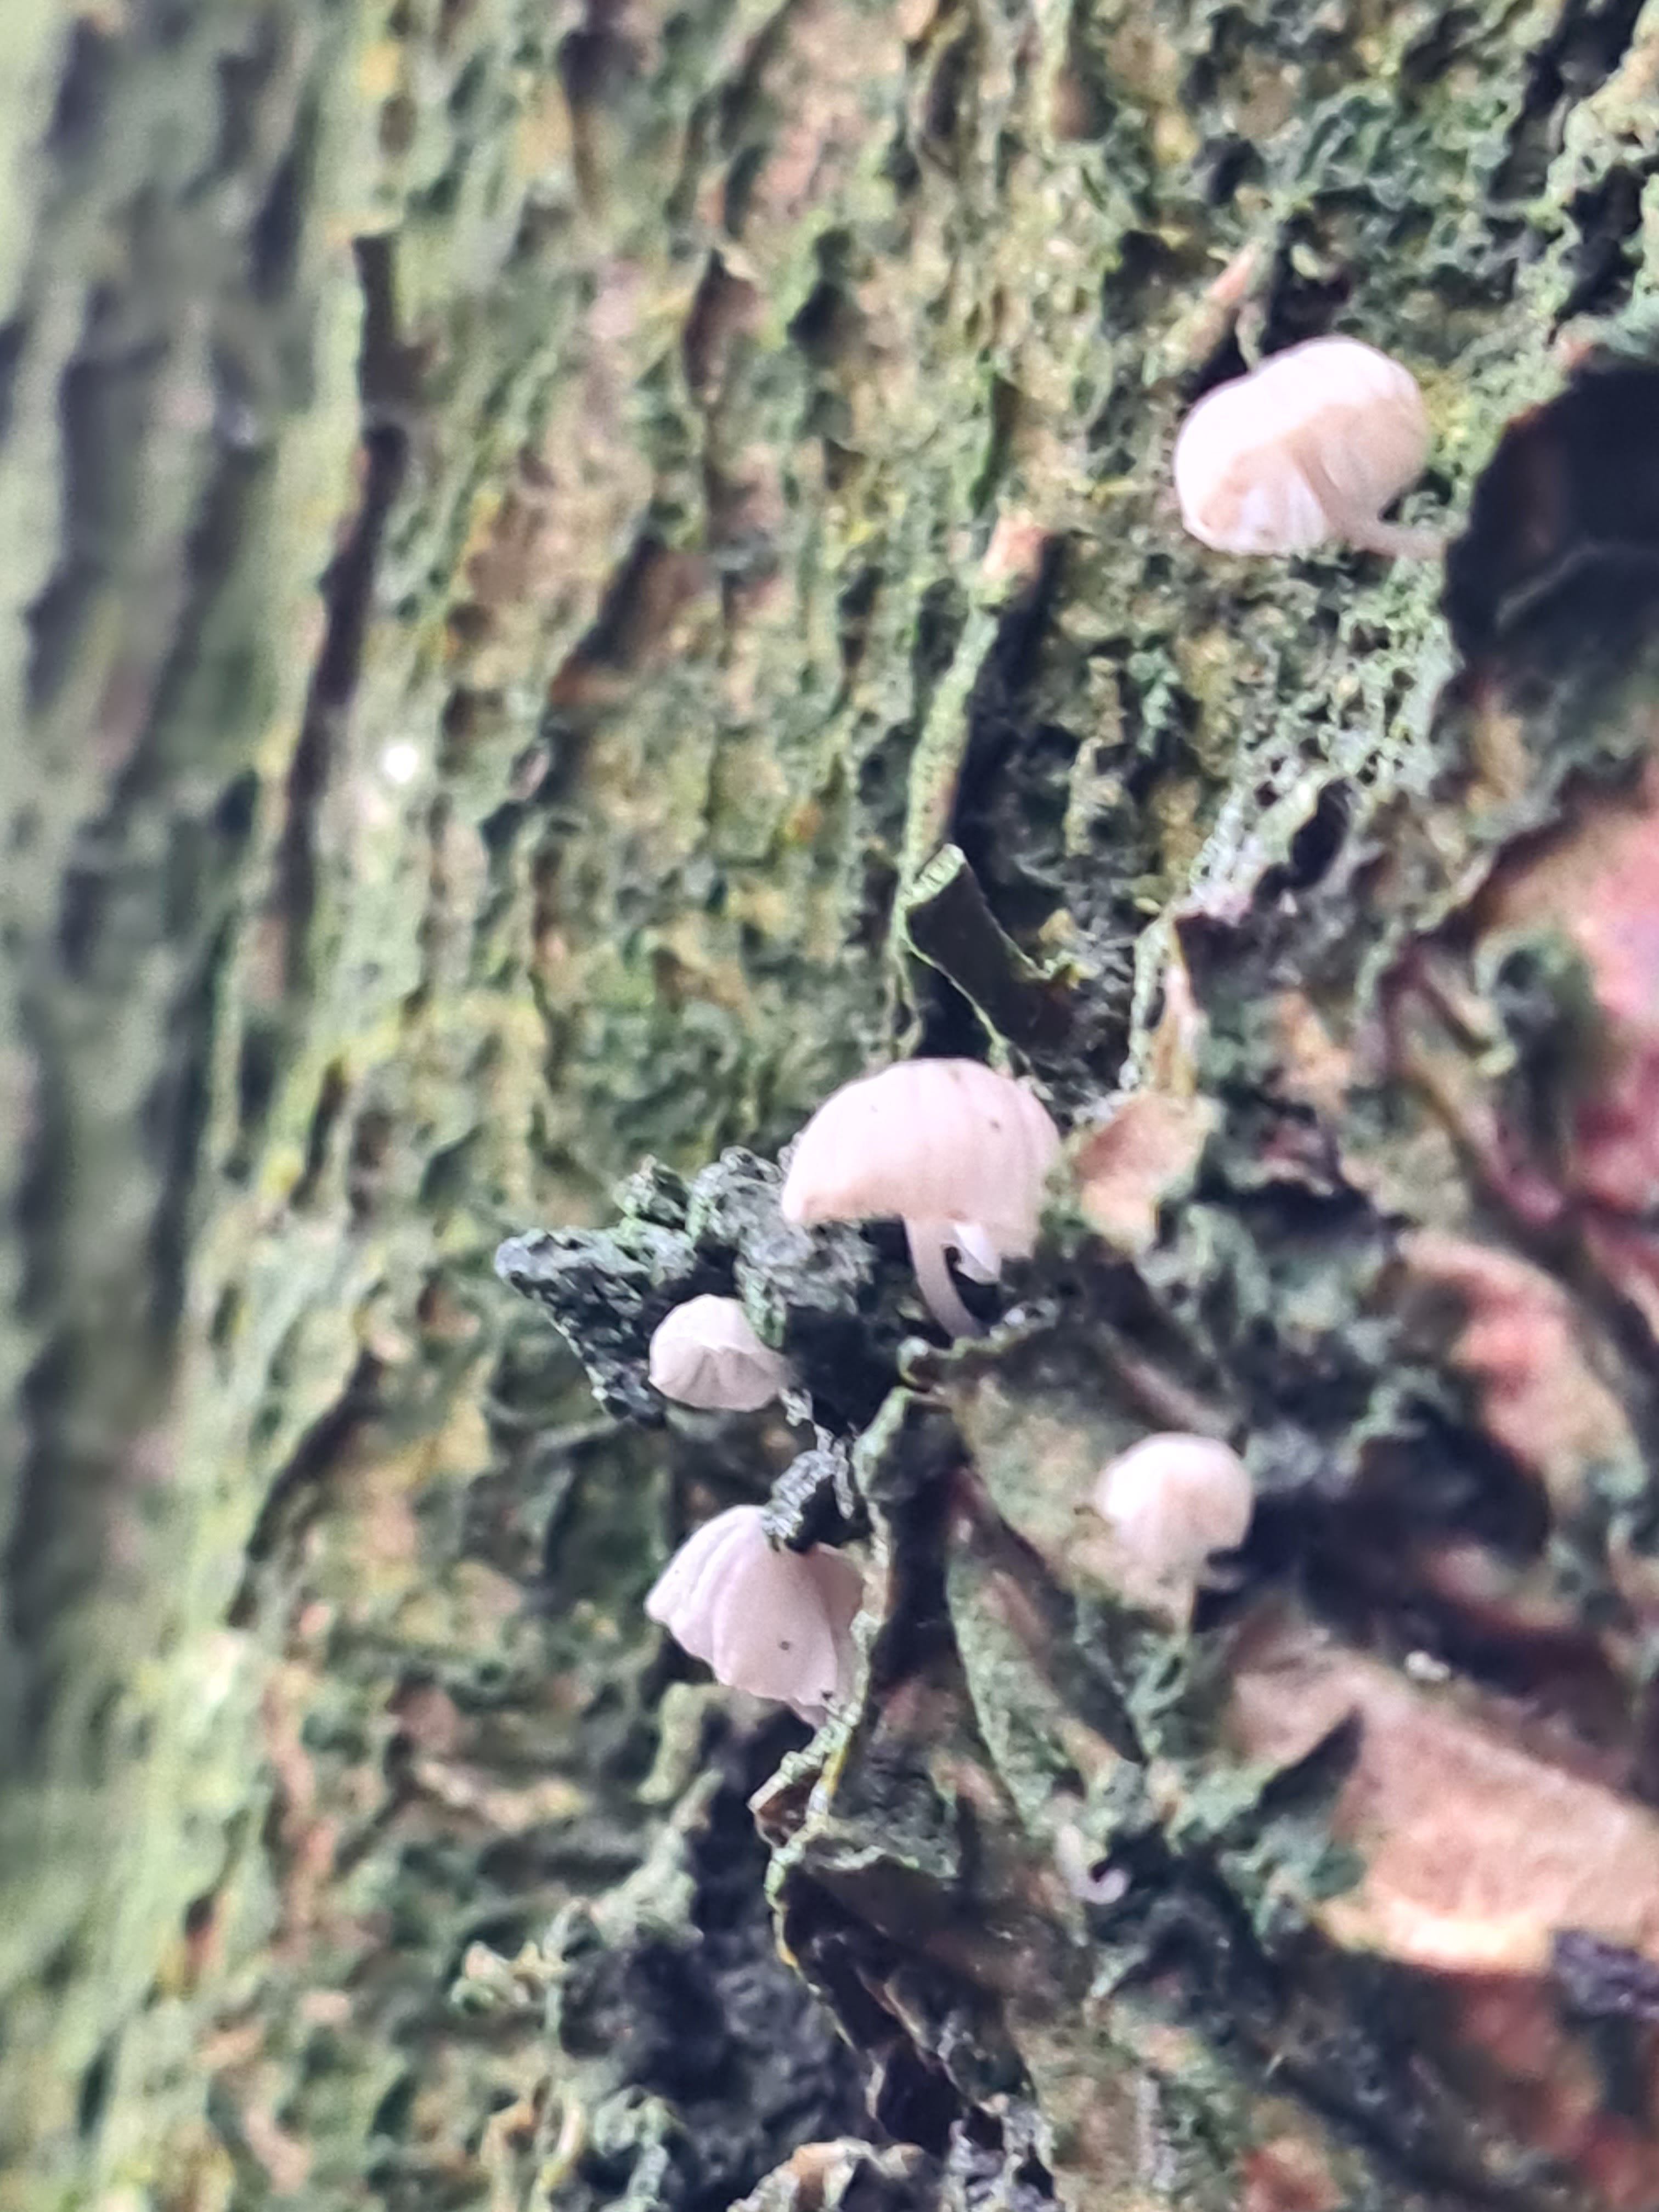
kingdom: Fungi
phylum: Basidiomycota
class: Agaricomycetes
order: Agaricales
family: Mycenaceae
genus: Mycena
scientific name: Mycena meliigena
